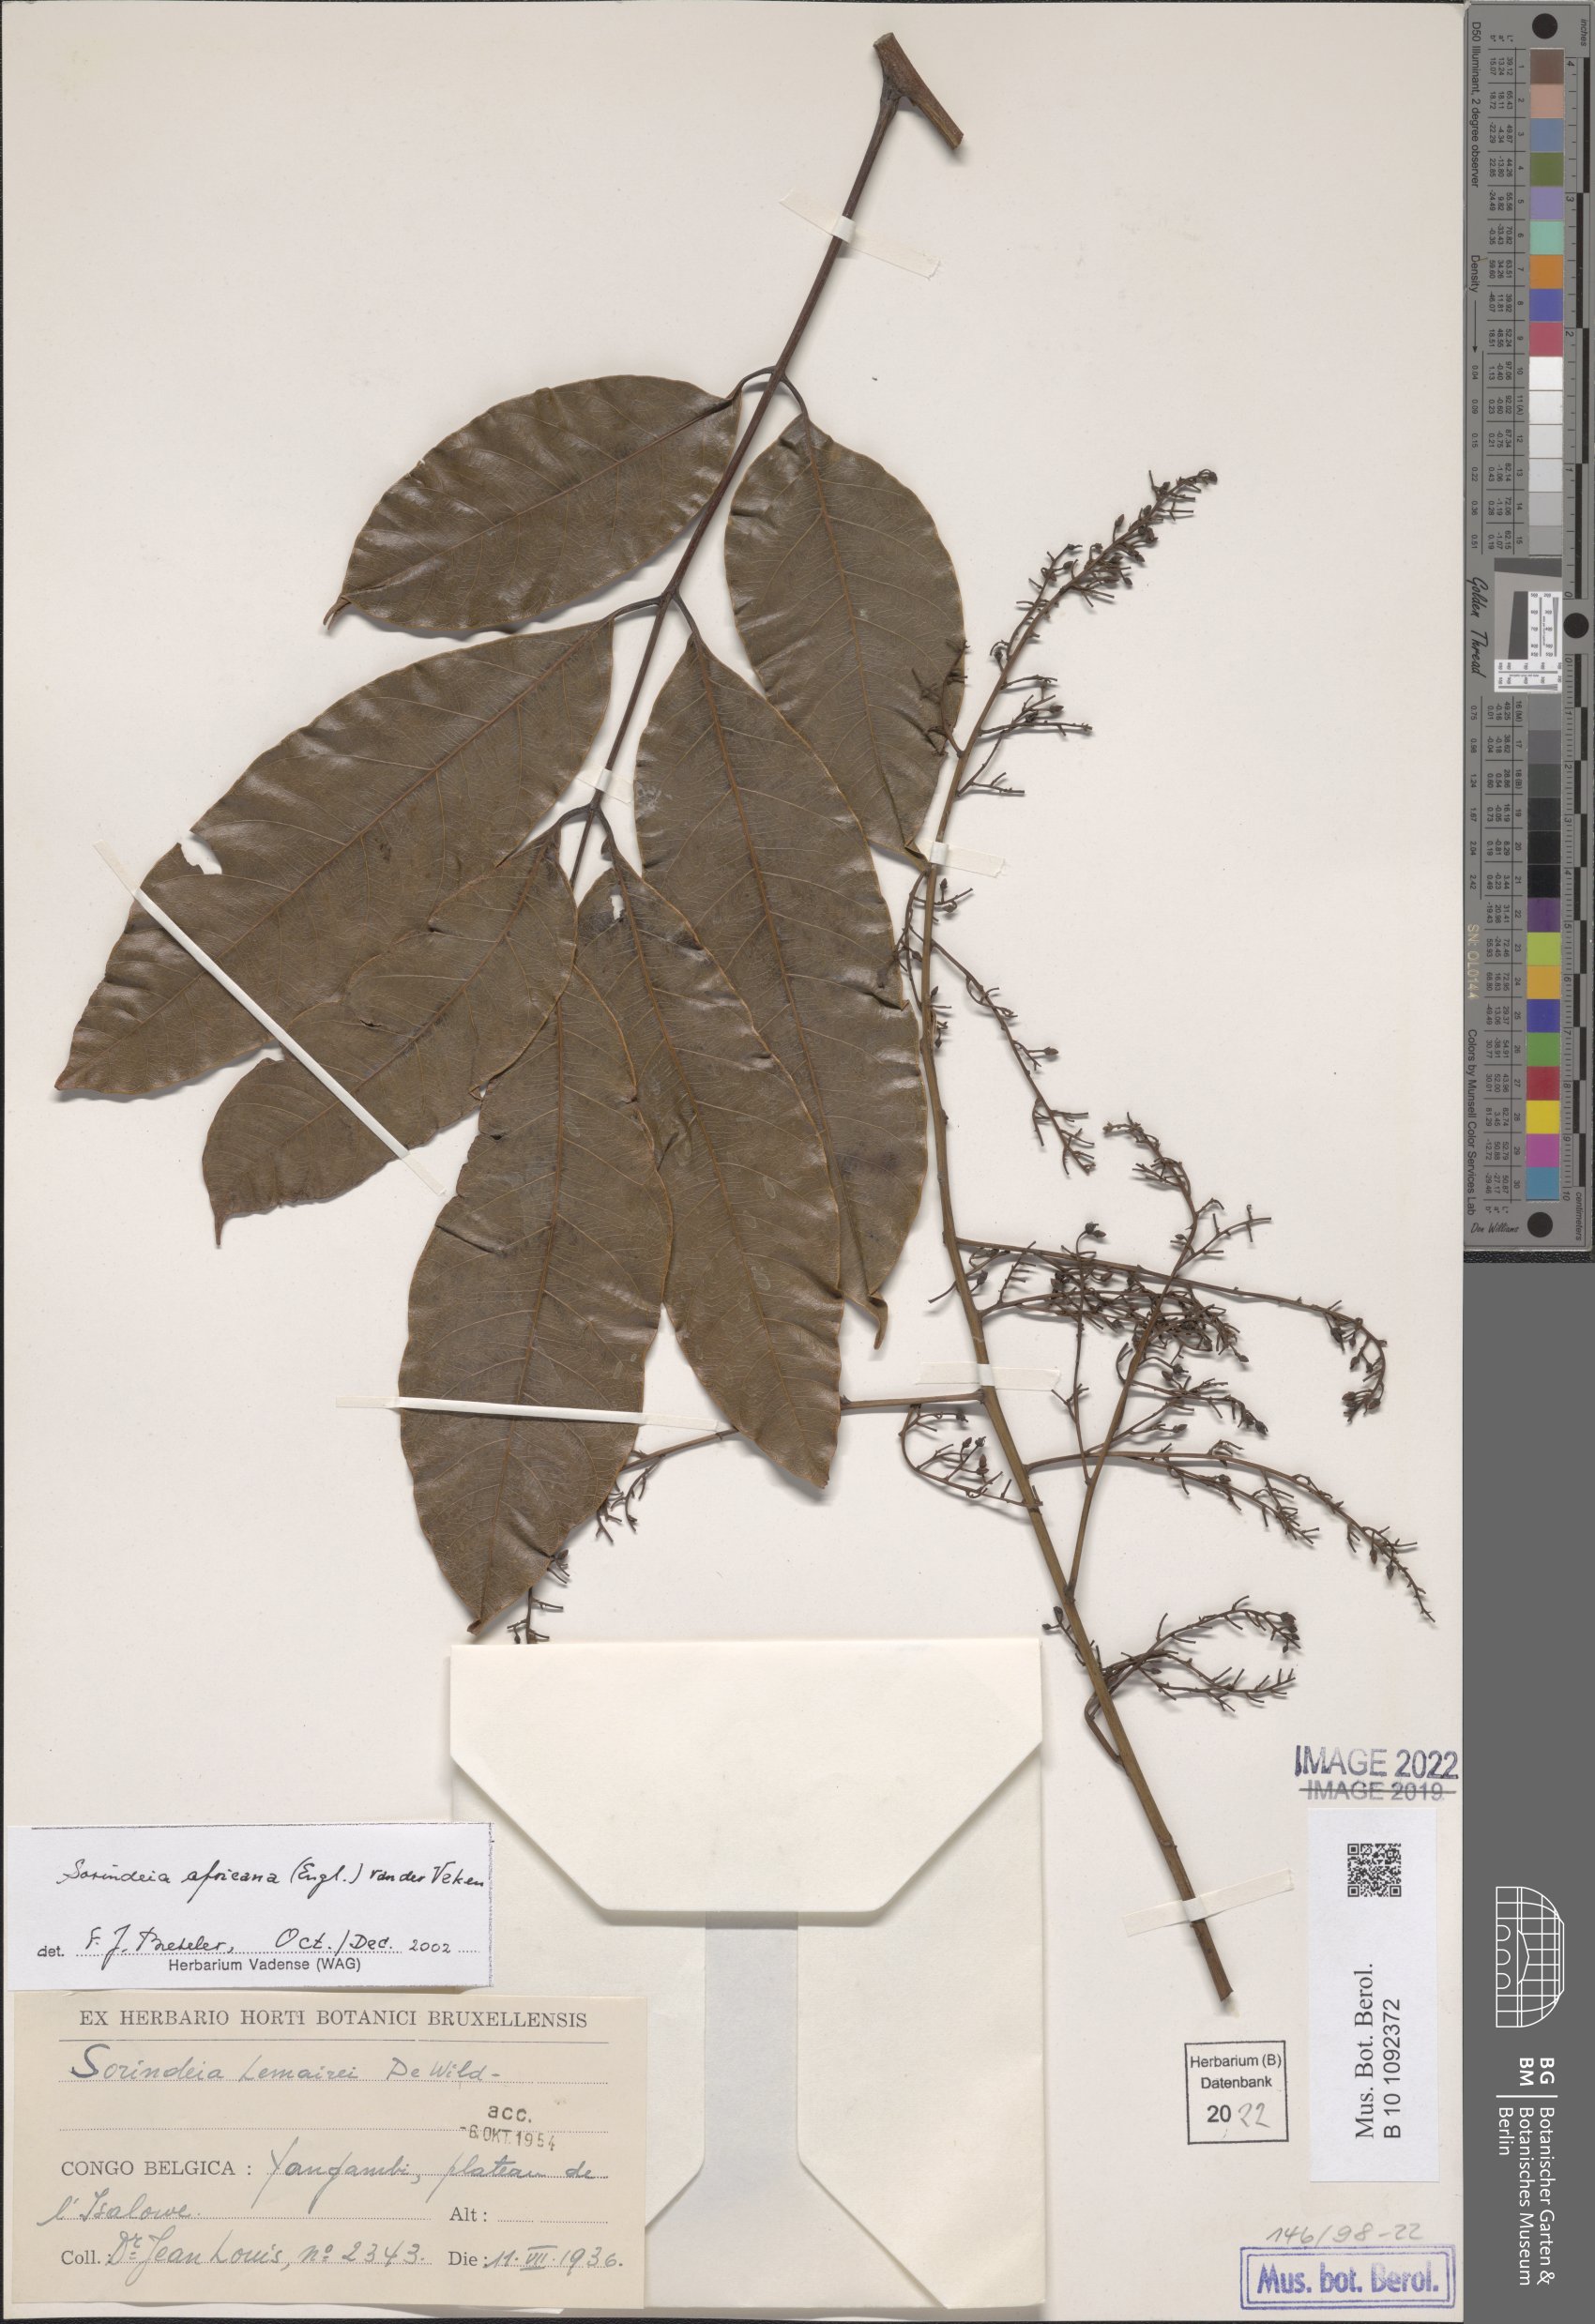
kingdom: Plantae
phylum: Tracheophyta
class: Magnoliopsida
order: Sapindales
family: Anacardiaceae
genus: Sorindeia
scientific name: Sorindeia africana
